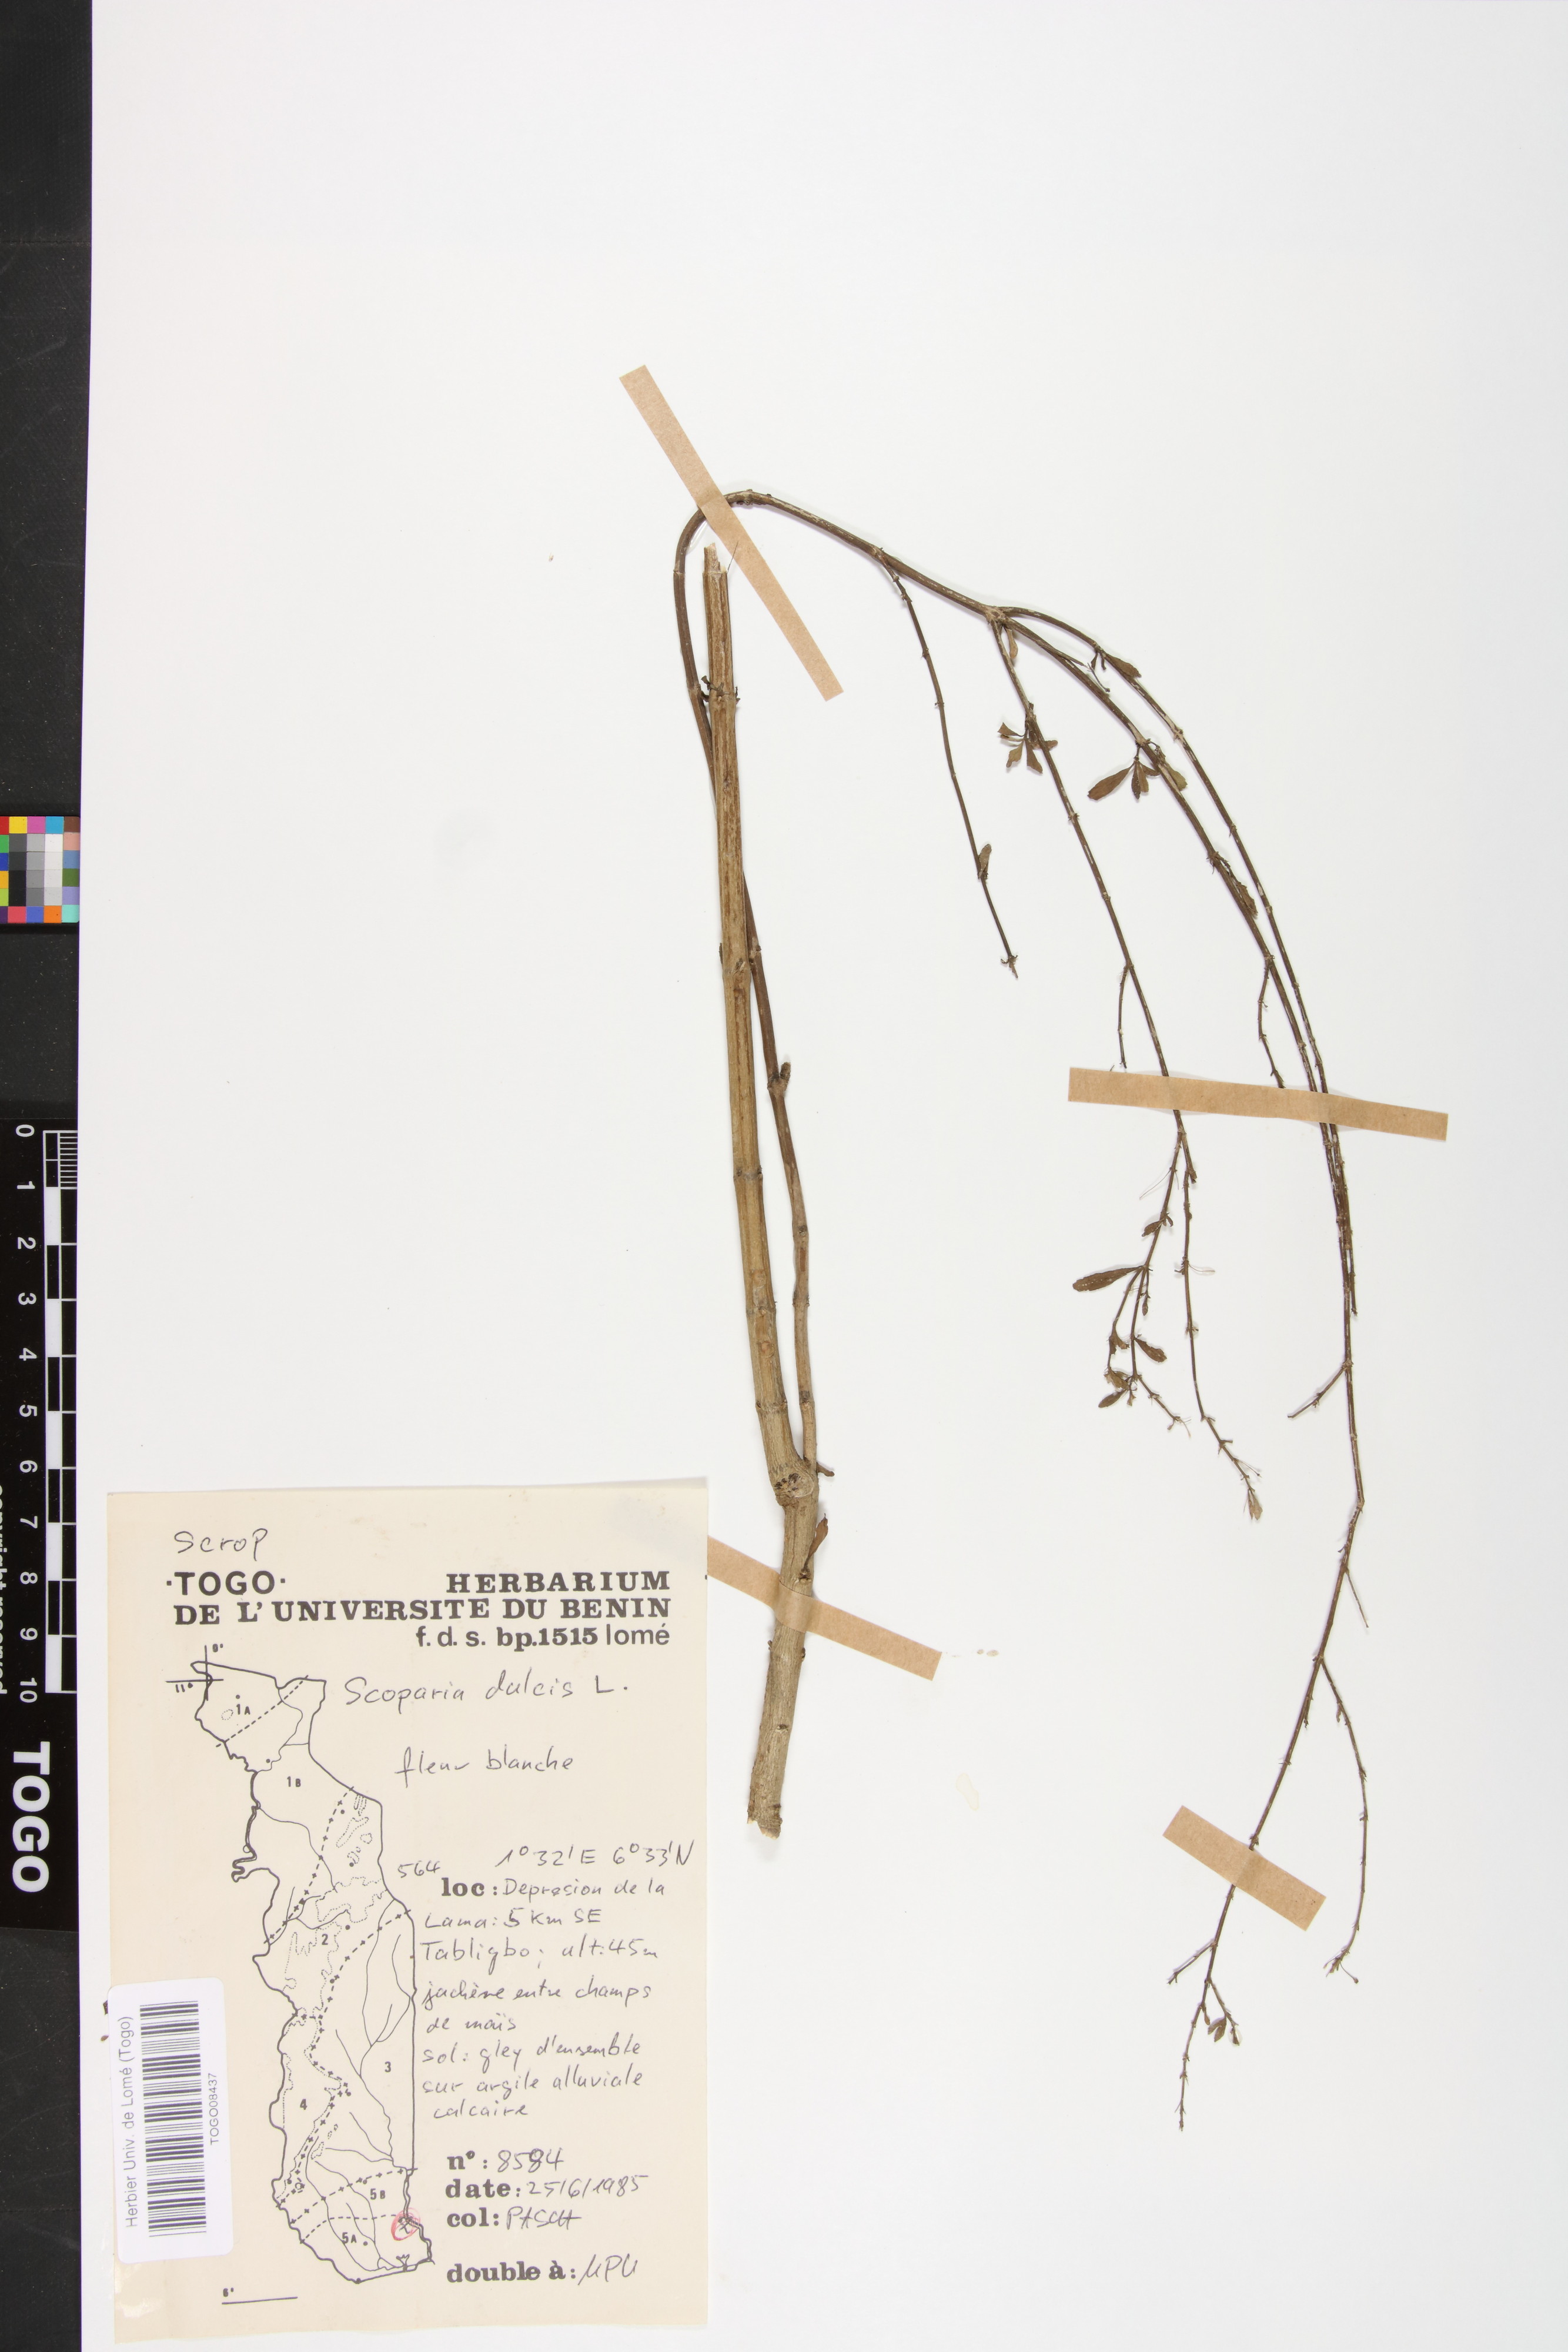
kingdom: Plantae
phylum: Tracheophyta
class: Magnoliopsida
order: Lamiales
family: Plantaginaceae
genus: Scoparia
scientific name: Scoparia dulcis
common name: Scoparia-weed
